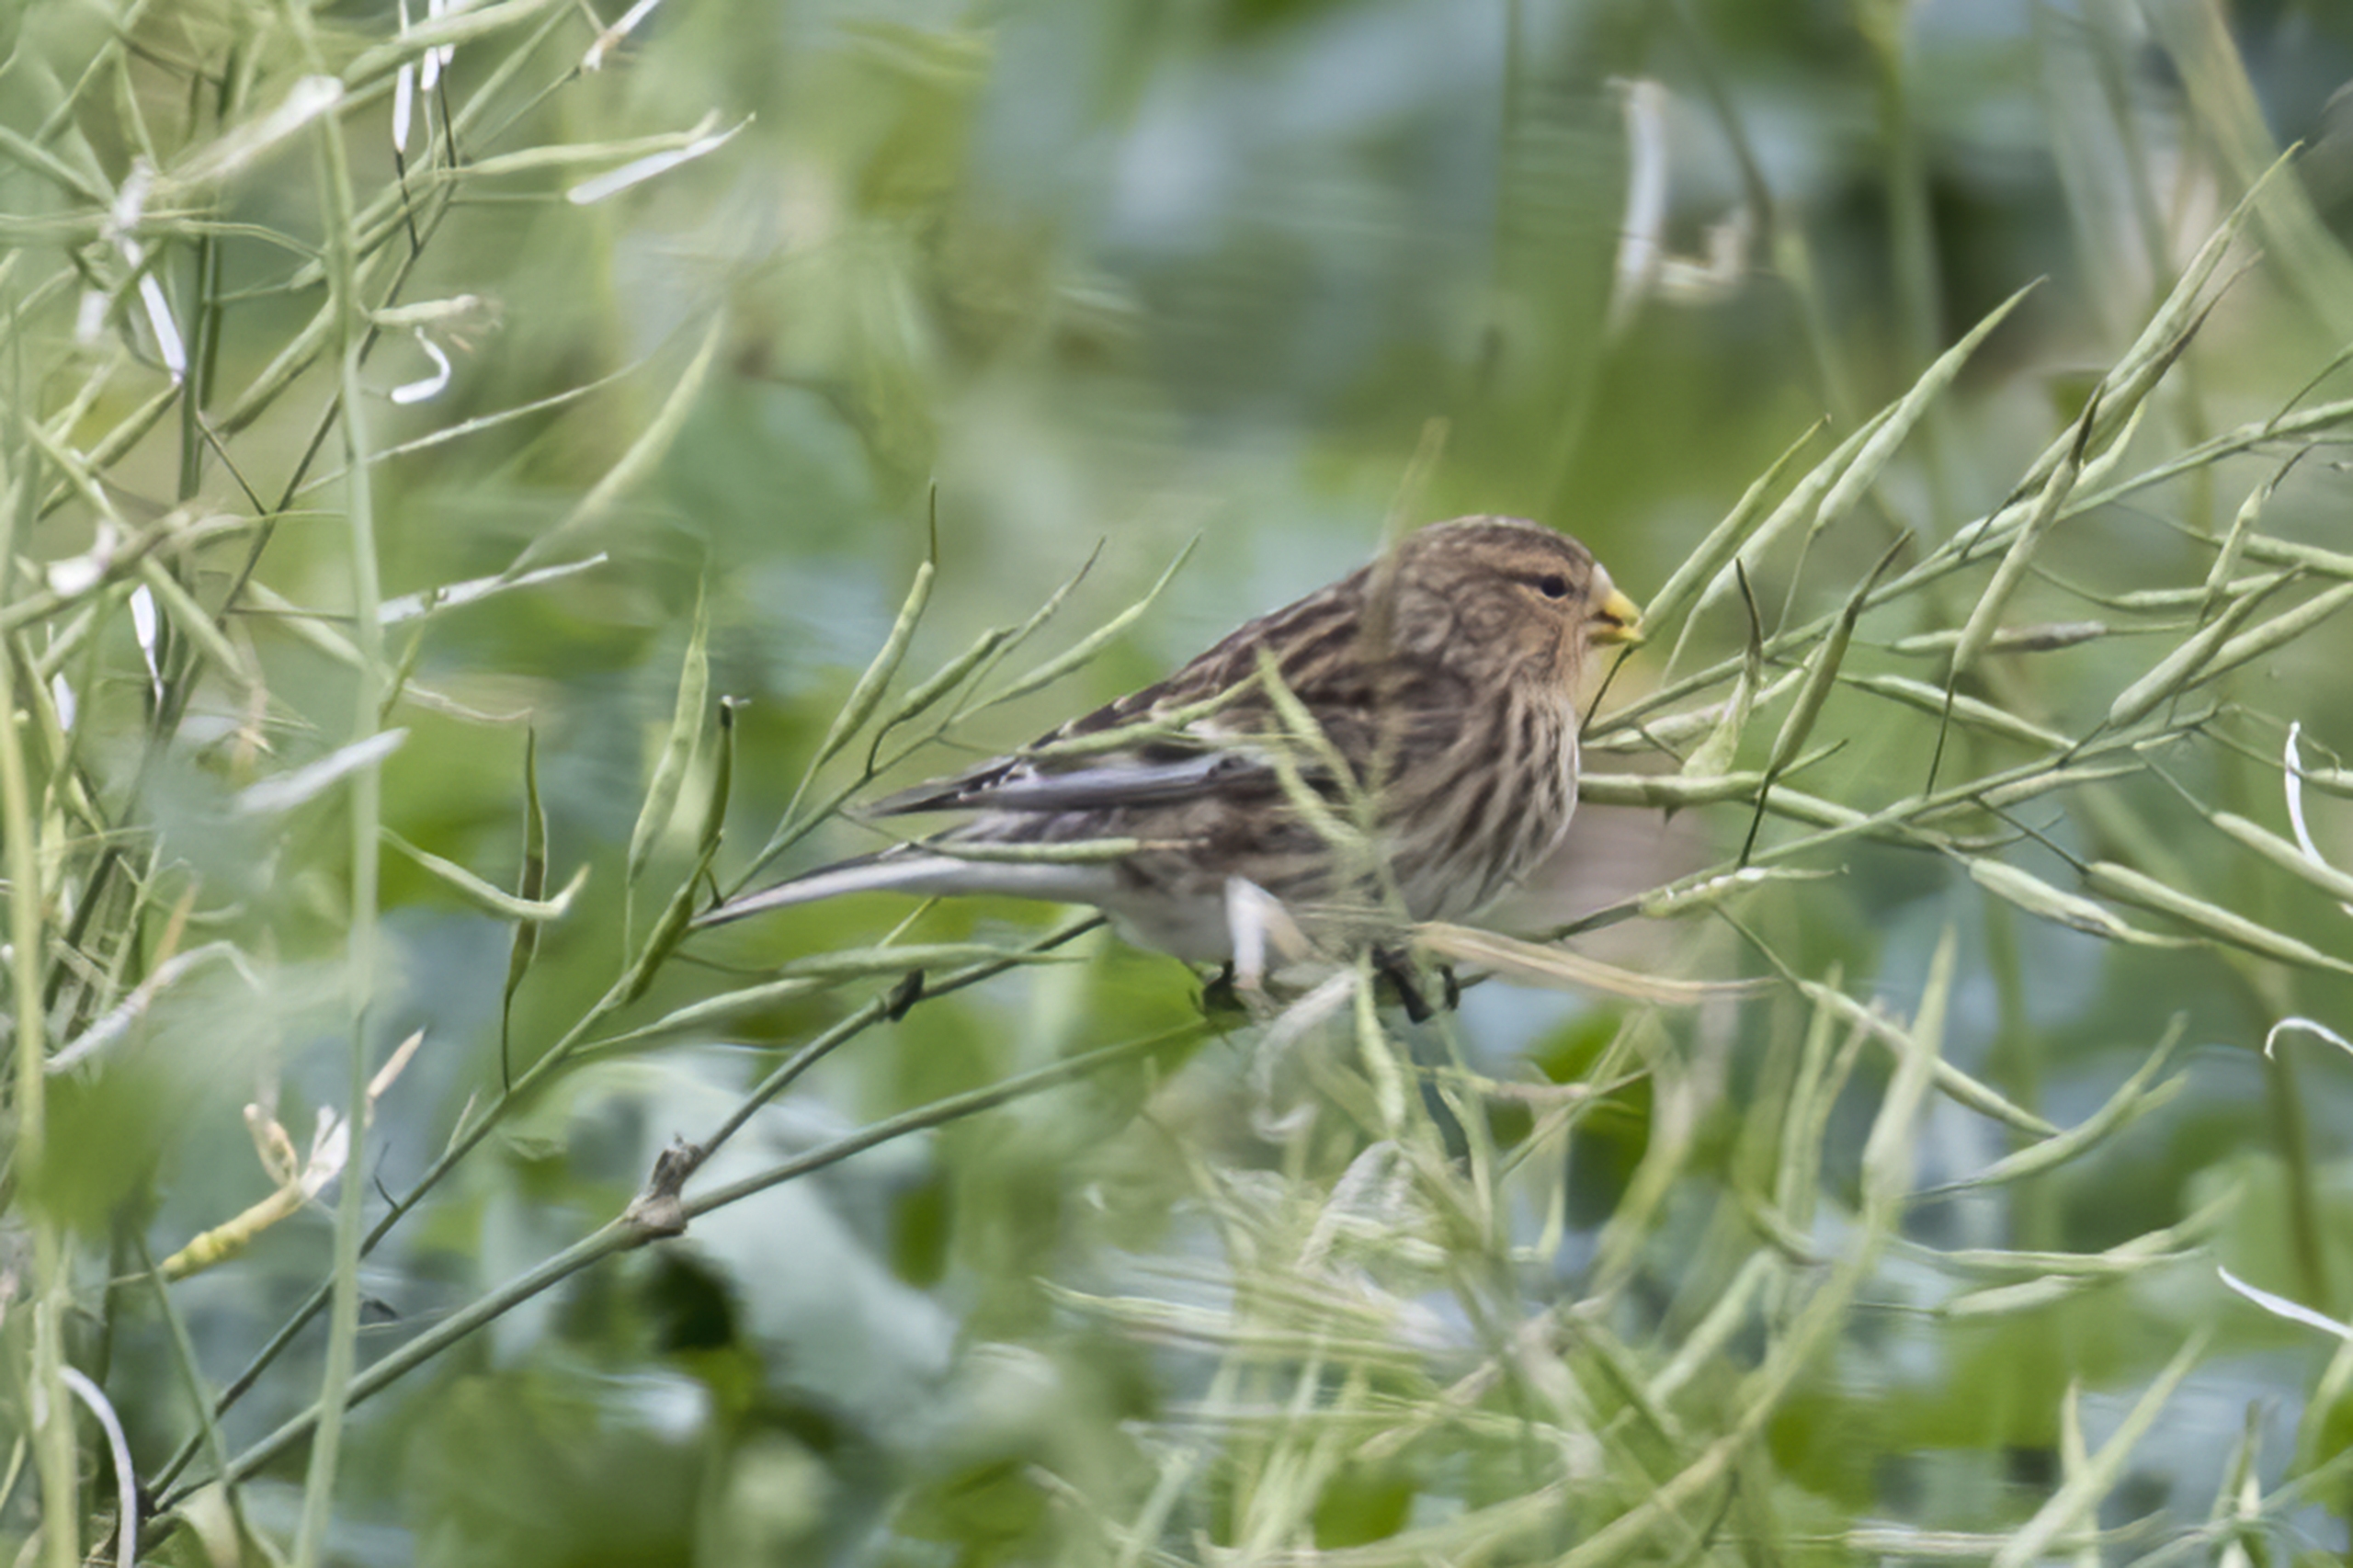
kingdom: Animalia
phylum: Chordata
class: Aves
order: Passeriformes
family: Fringillidae
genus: Linaria
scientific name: Linaria flavirostris
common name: Bjergirisk
